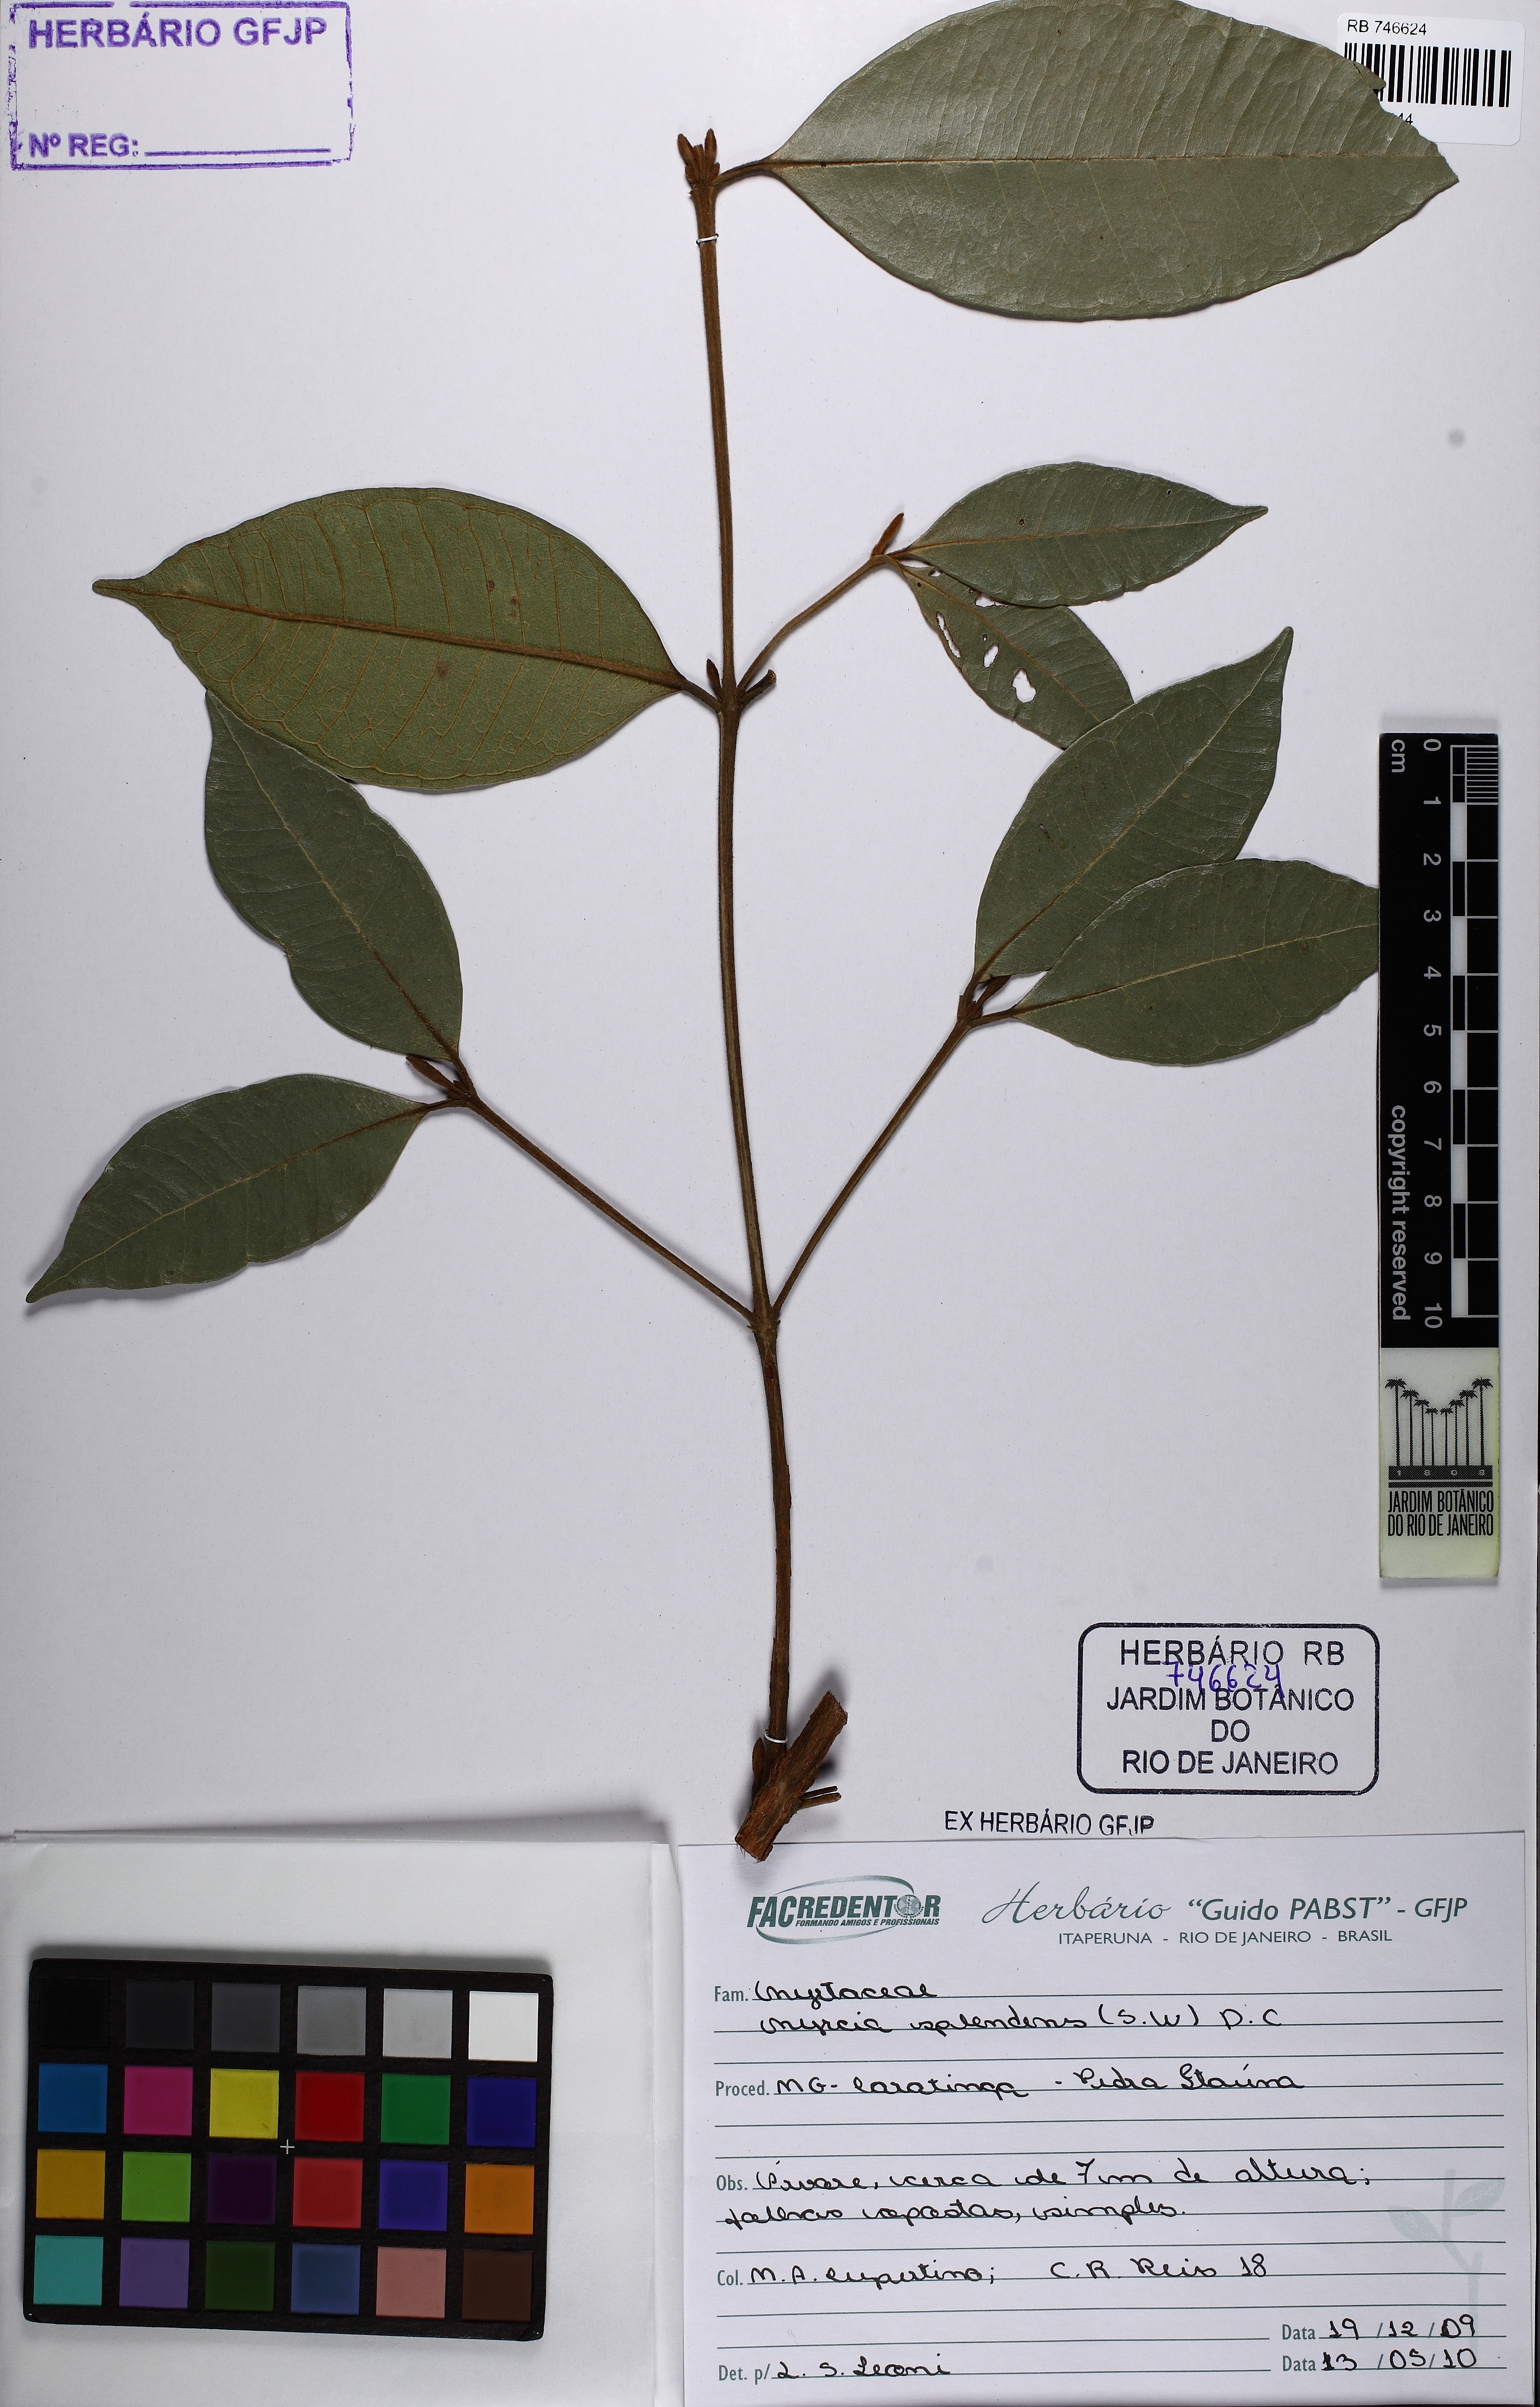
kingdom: Plantae
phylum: Tracheophyta
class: Magnoliopsida
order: Myrtales
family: Myrtaceae
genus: Myrcia
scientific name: Myrcia splendens
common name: Surinam cherry
